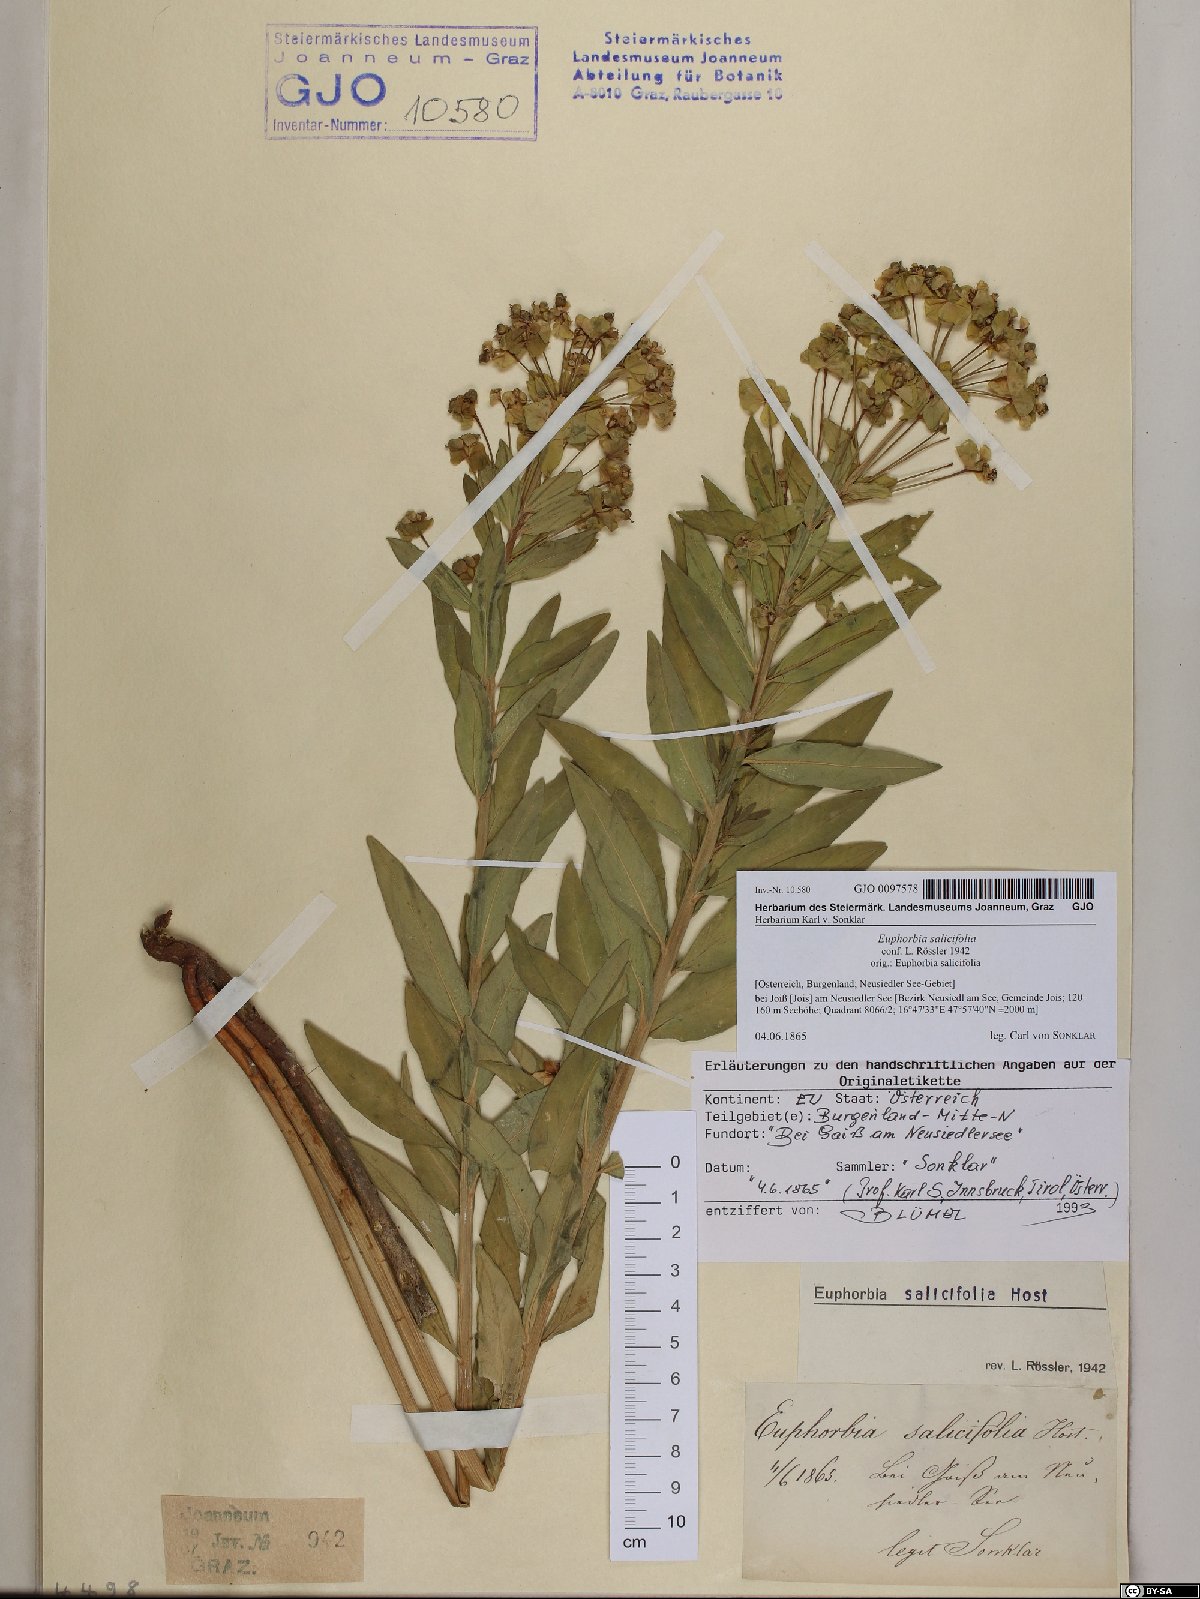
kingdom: Plantae
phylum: Tracheophyta
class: Magnoliopsida
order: Malpighiales
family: Euphorbiaceae
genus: Euphorbia
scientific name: Euphorbia salicifolia
